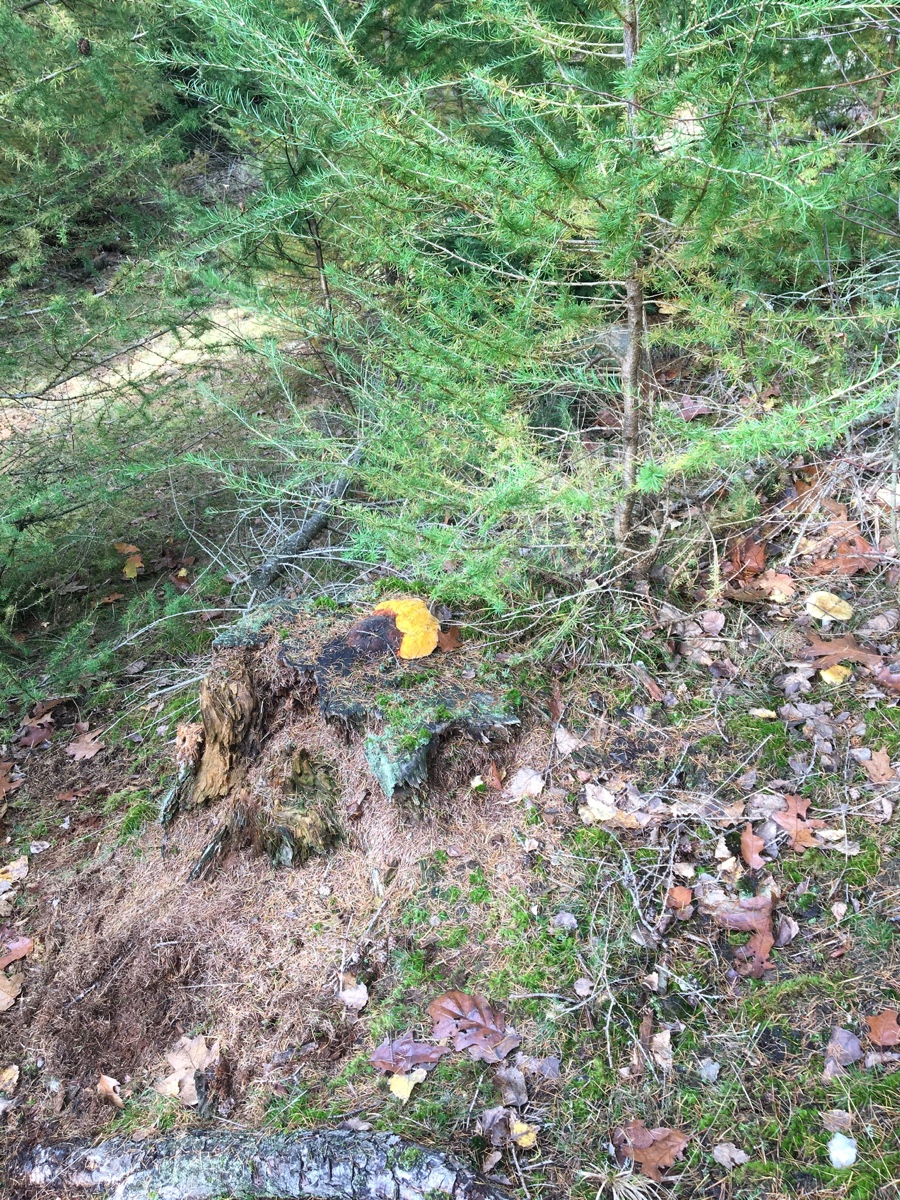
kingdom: Fungi
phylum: Basidiomycota
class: Agaricomycetes
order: Gloeophyllales
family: Gloeophyllaceae
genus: Gloeophyllum
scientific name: Gloeophyllum odoratum
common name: duftende korkhat
